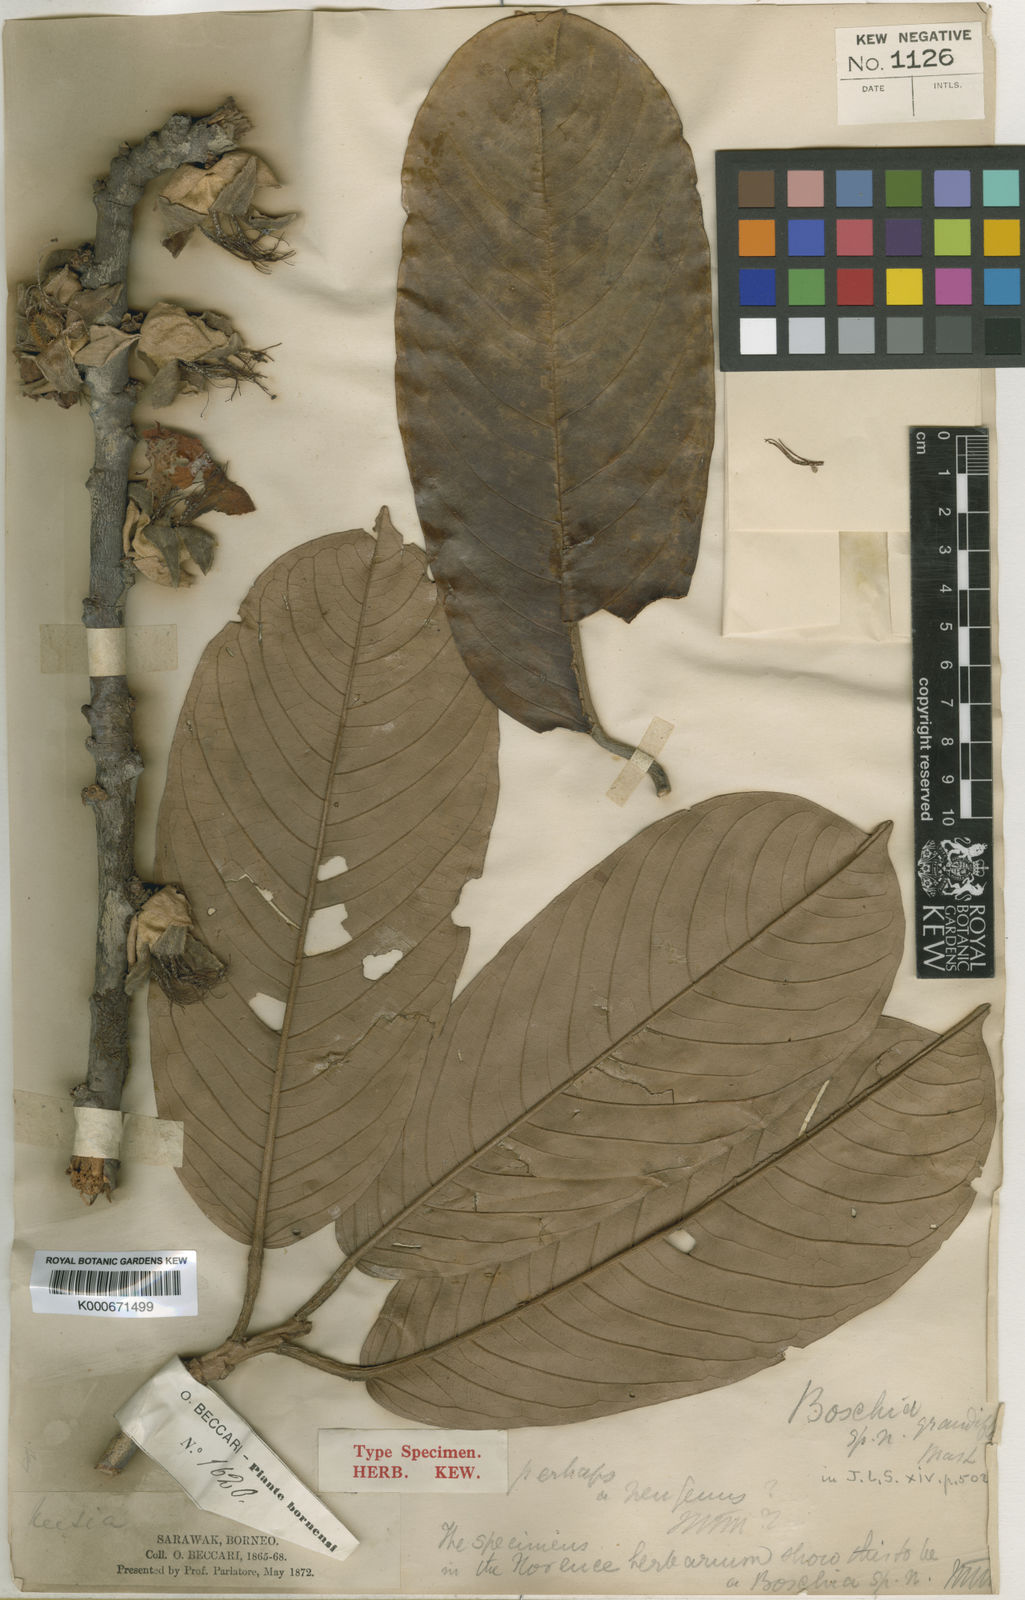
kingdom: Plantae
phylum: Tracheophyta
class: Magnoliopsida
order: Malvales
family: Malvaceae
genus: Boschia
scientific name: Boschia grandiflora
